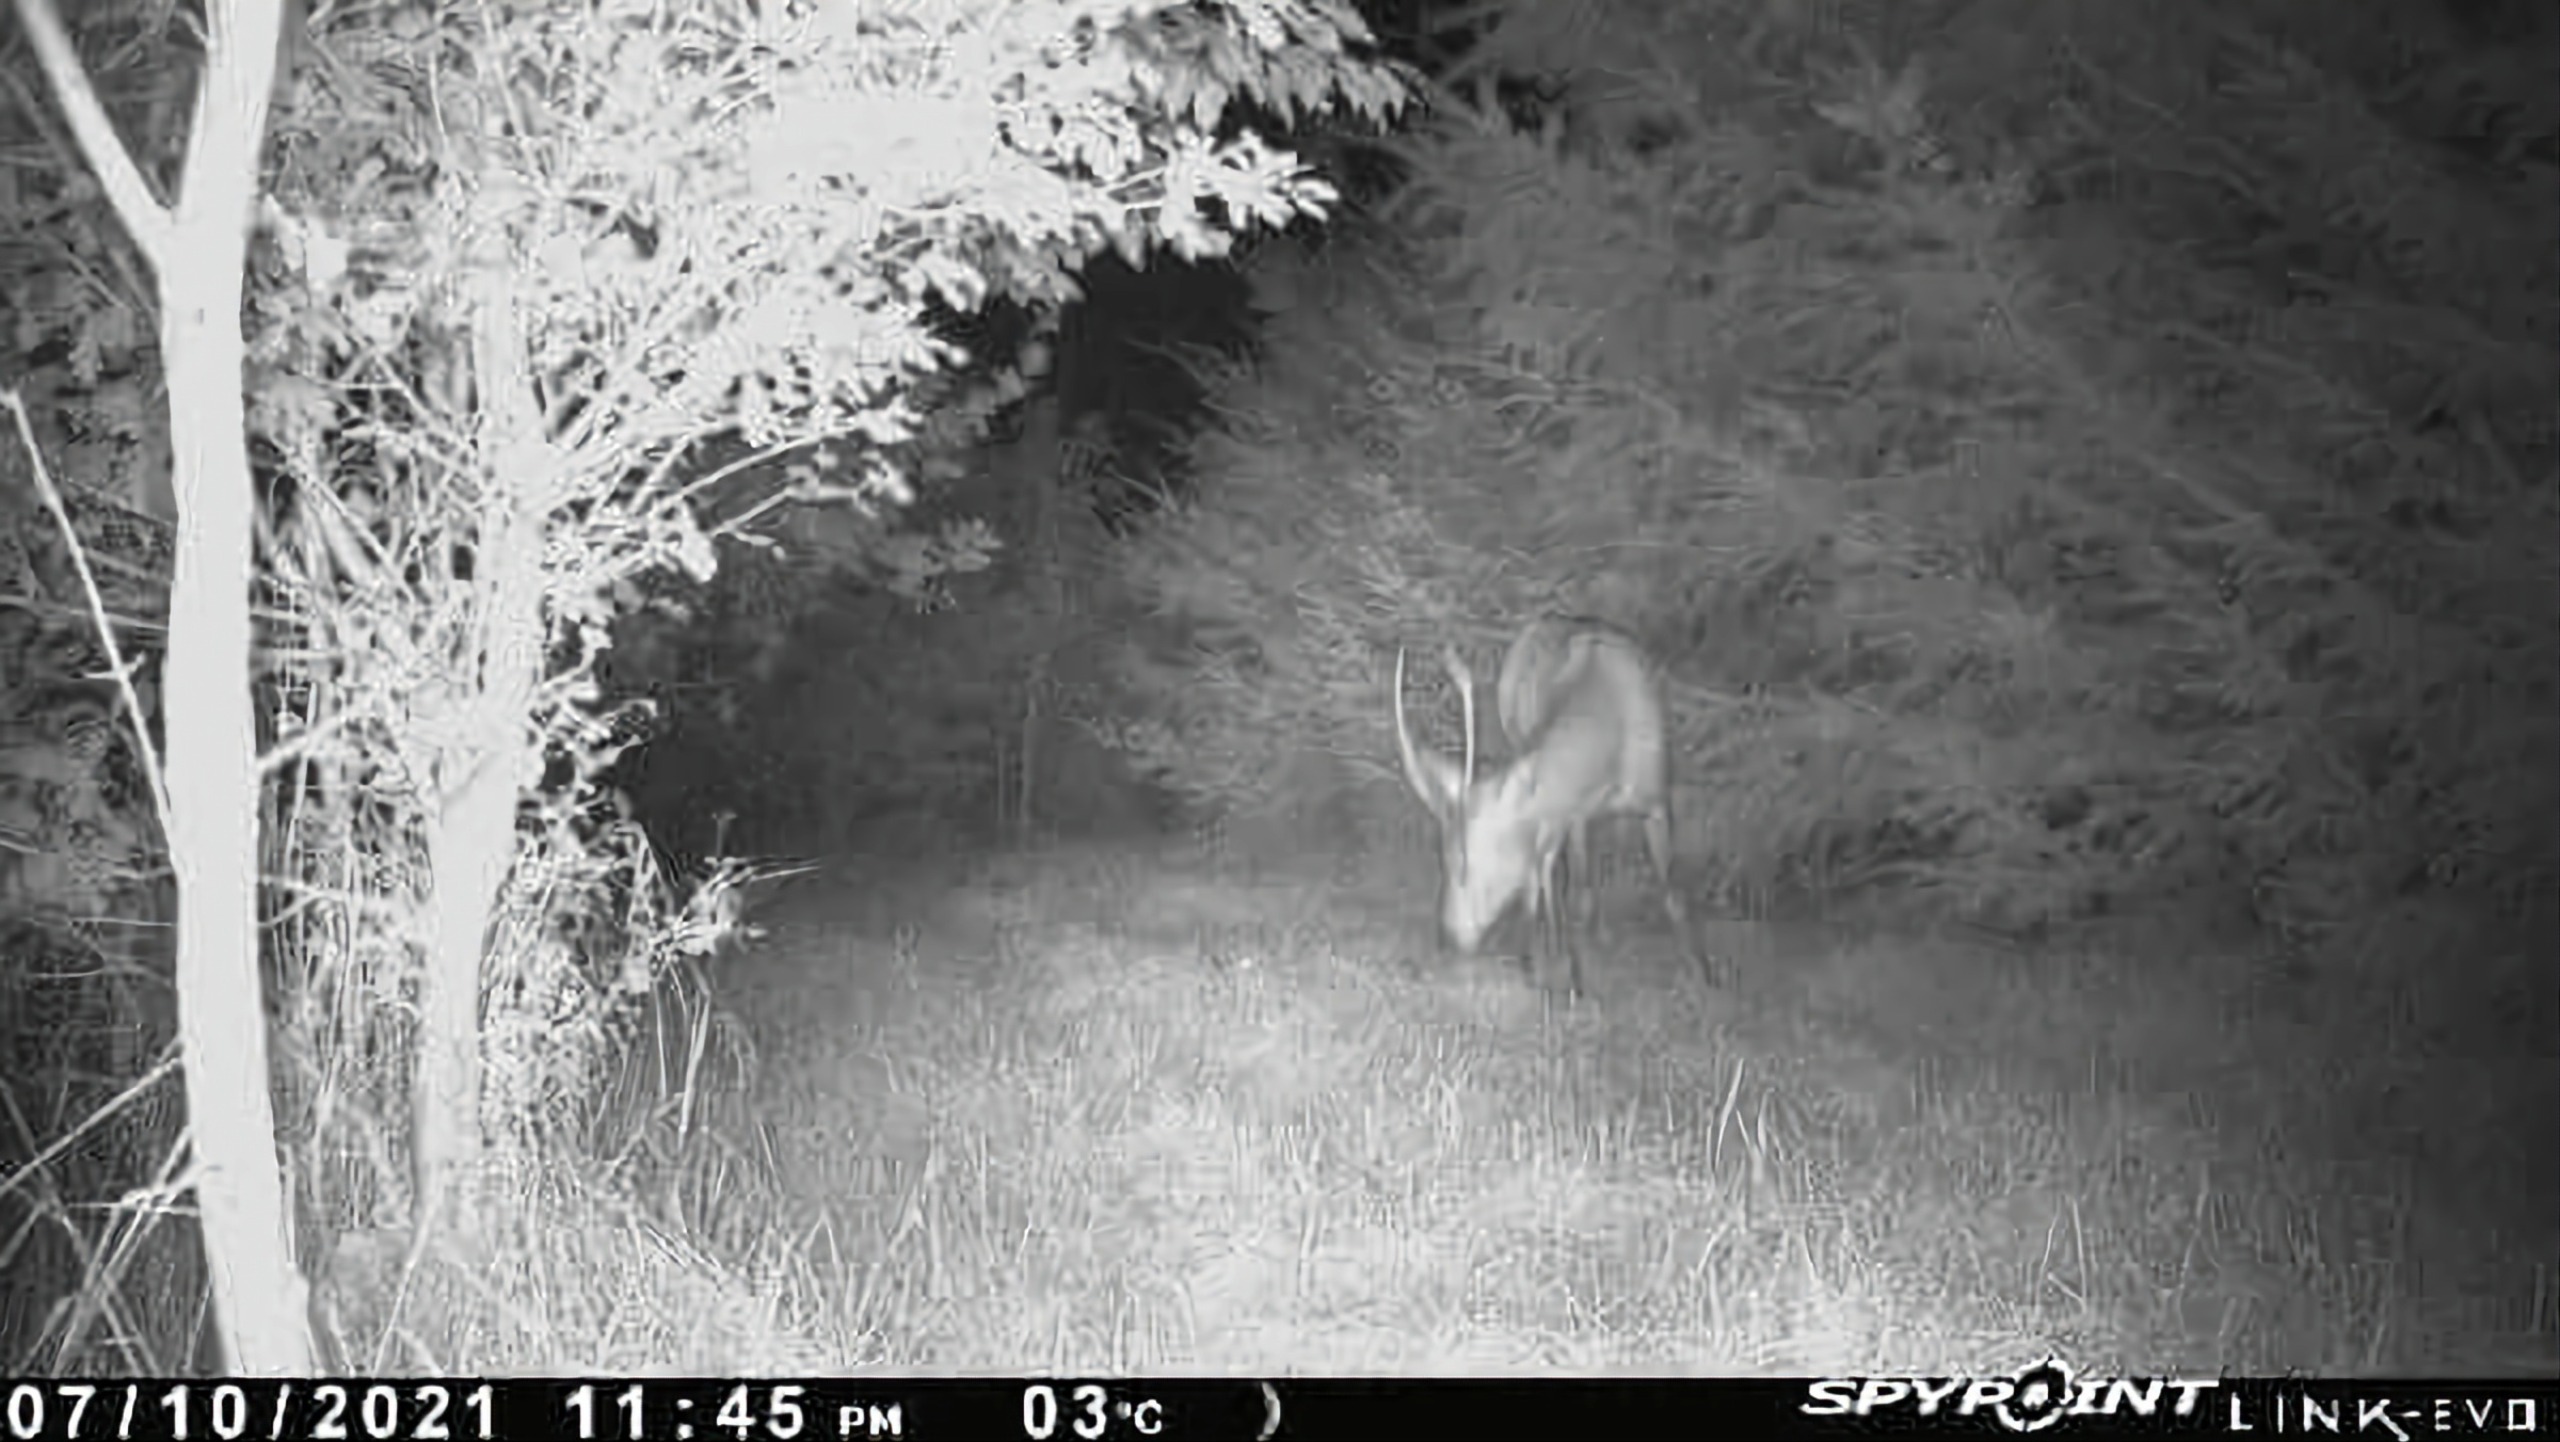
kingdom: Animalia
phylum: Chordata
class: Mammalia
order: Artiodactyla
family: Cervidae
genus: Cervus
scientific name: Cervus elaphus
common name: Krondyr
